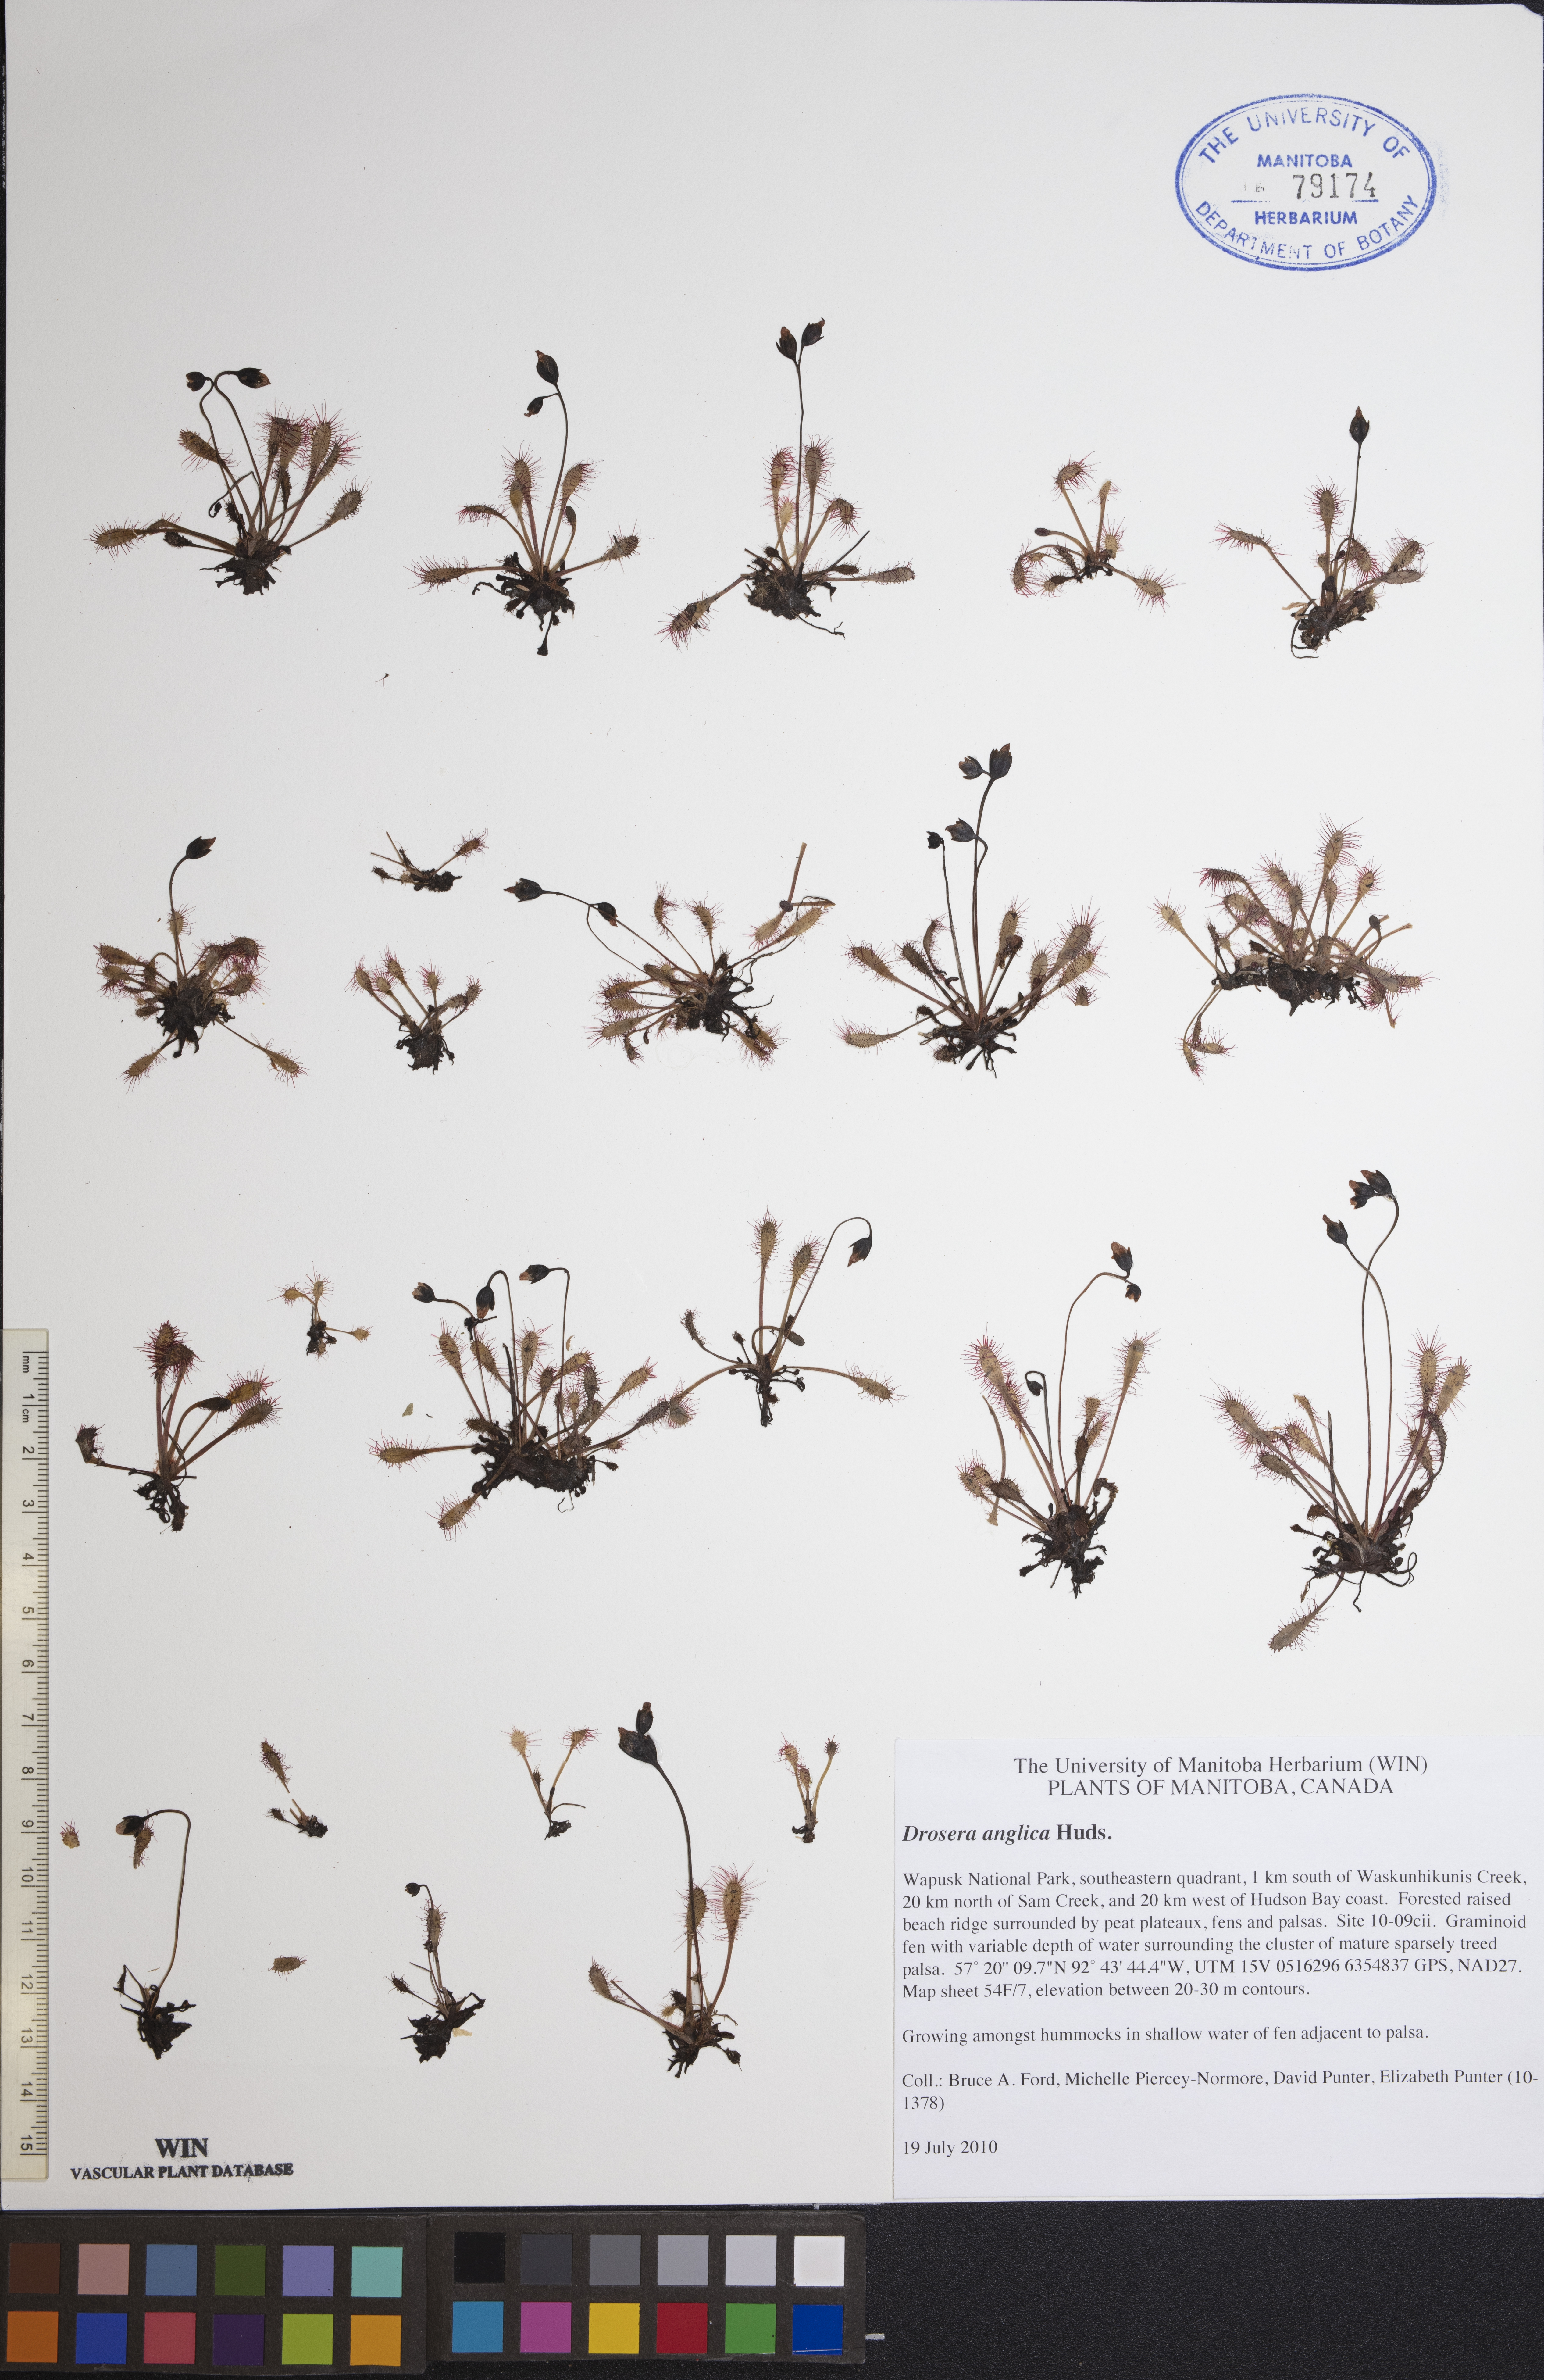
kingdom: Plantae
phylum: Tracheophyta
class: Magnoliopsida
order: Caryophyllales
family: Droseraceae
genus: Drosera
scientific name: Drosera anglica
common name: Great sundew
